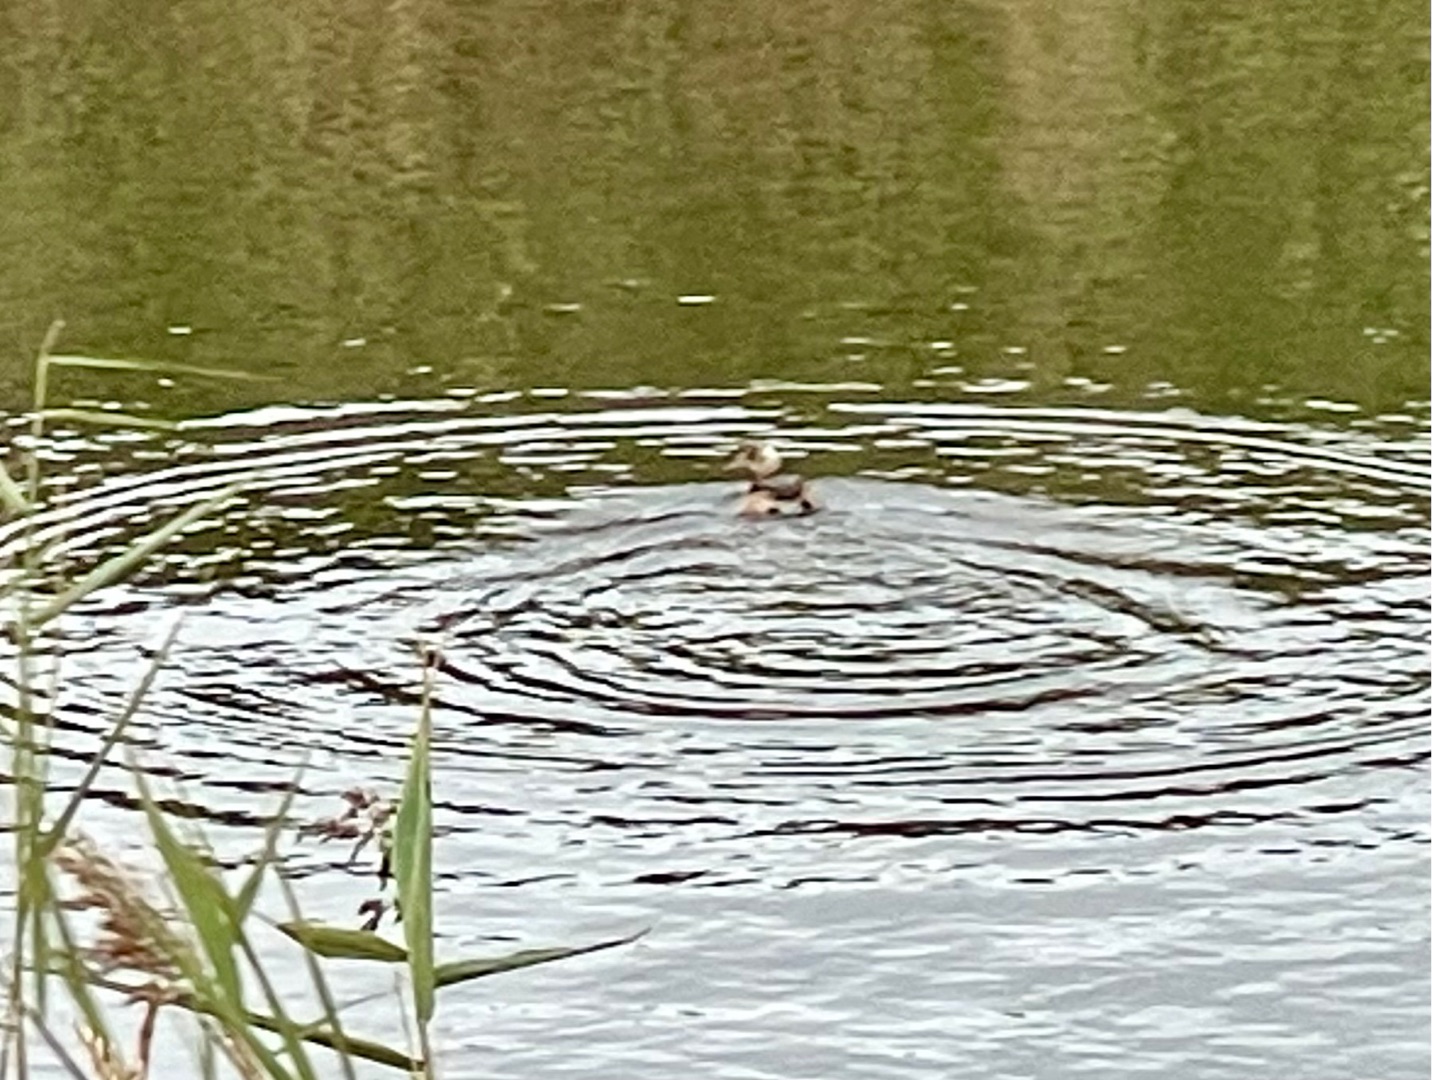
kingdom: Animalia
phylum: Chordata
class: Aves
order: Podicipediformes
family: Podicipedidae
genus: Tachybaptus
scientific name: Tachybaptus ruficollis
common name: Lille lappedykker
